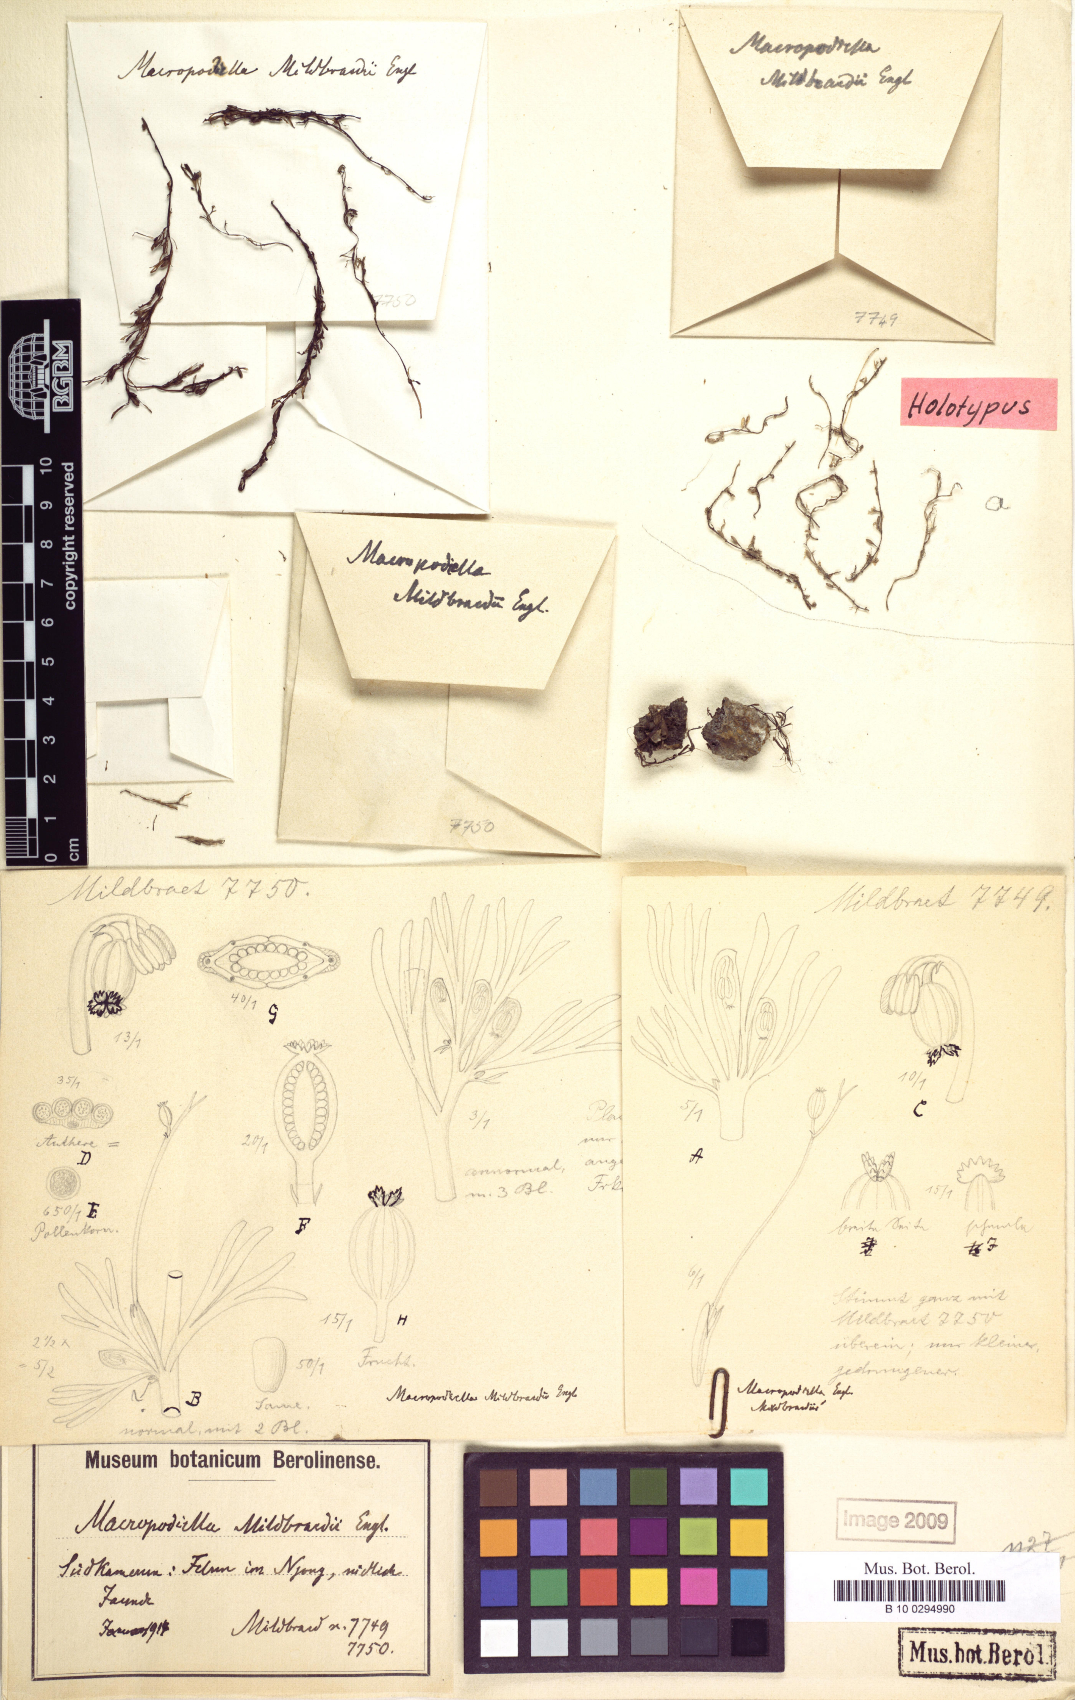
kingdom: Plantae
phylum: Tracheophyta
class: Magnoliopsida
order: Malpighiales
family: Podostemaceae
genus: Macropodiella
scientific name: Macropodiella heteromorpha
